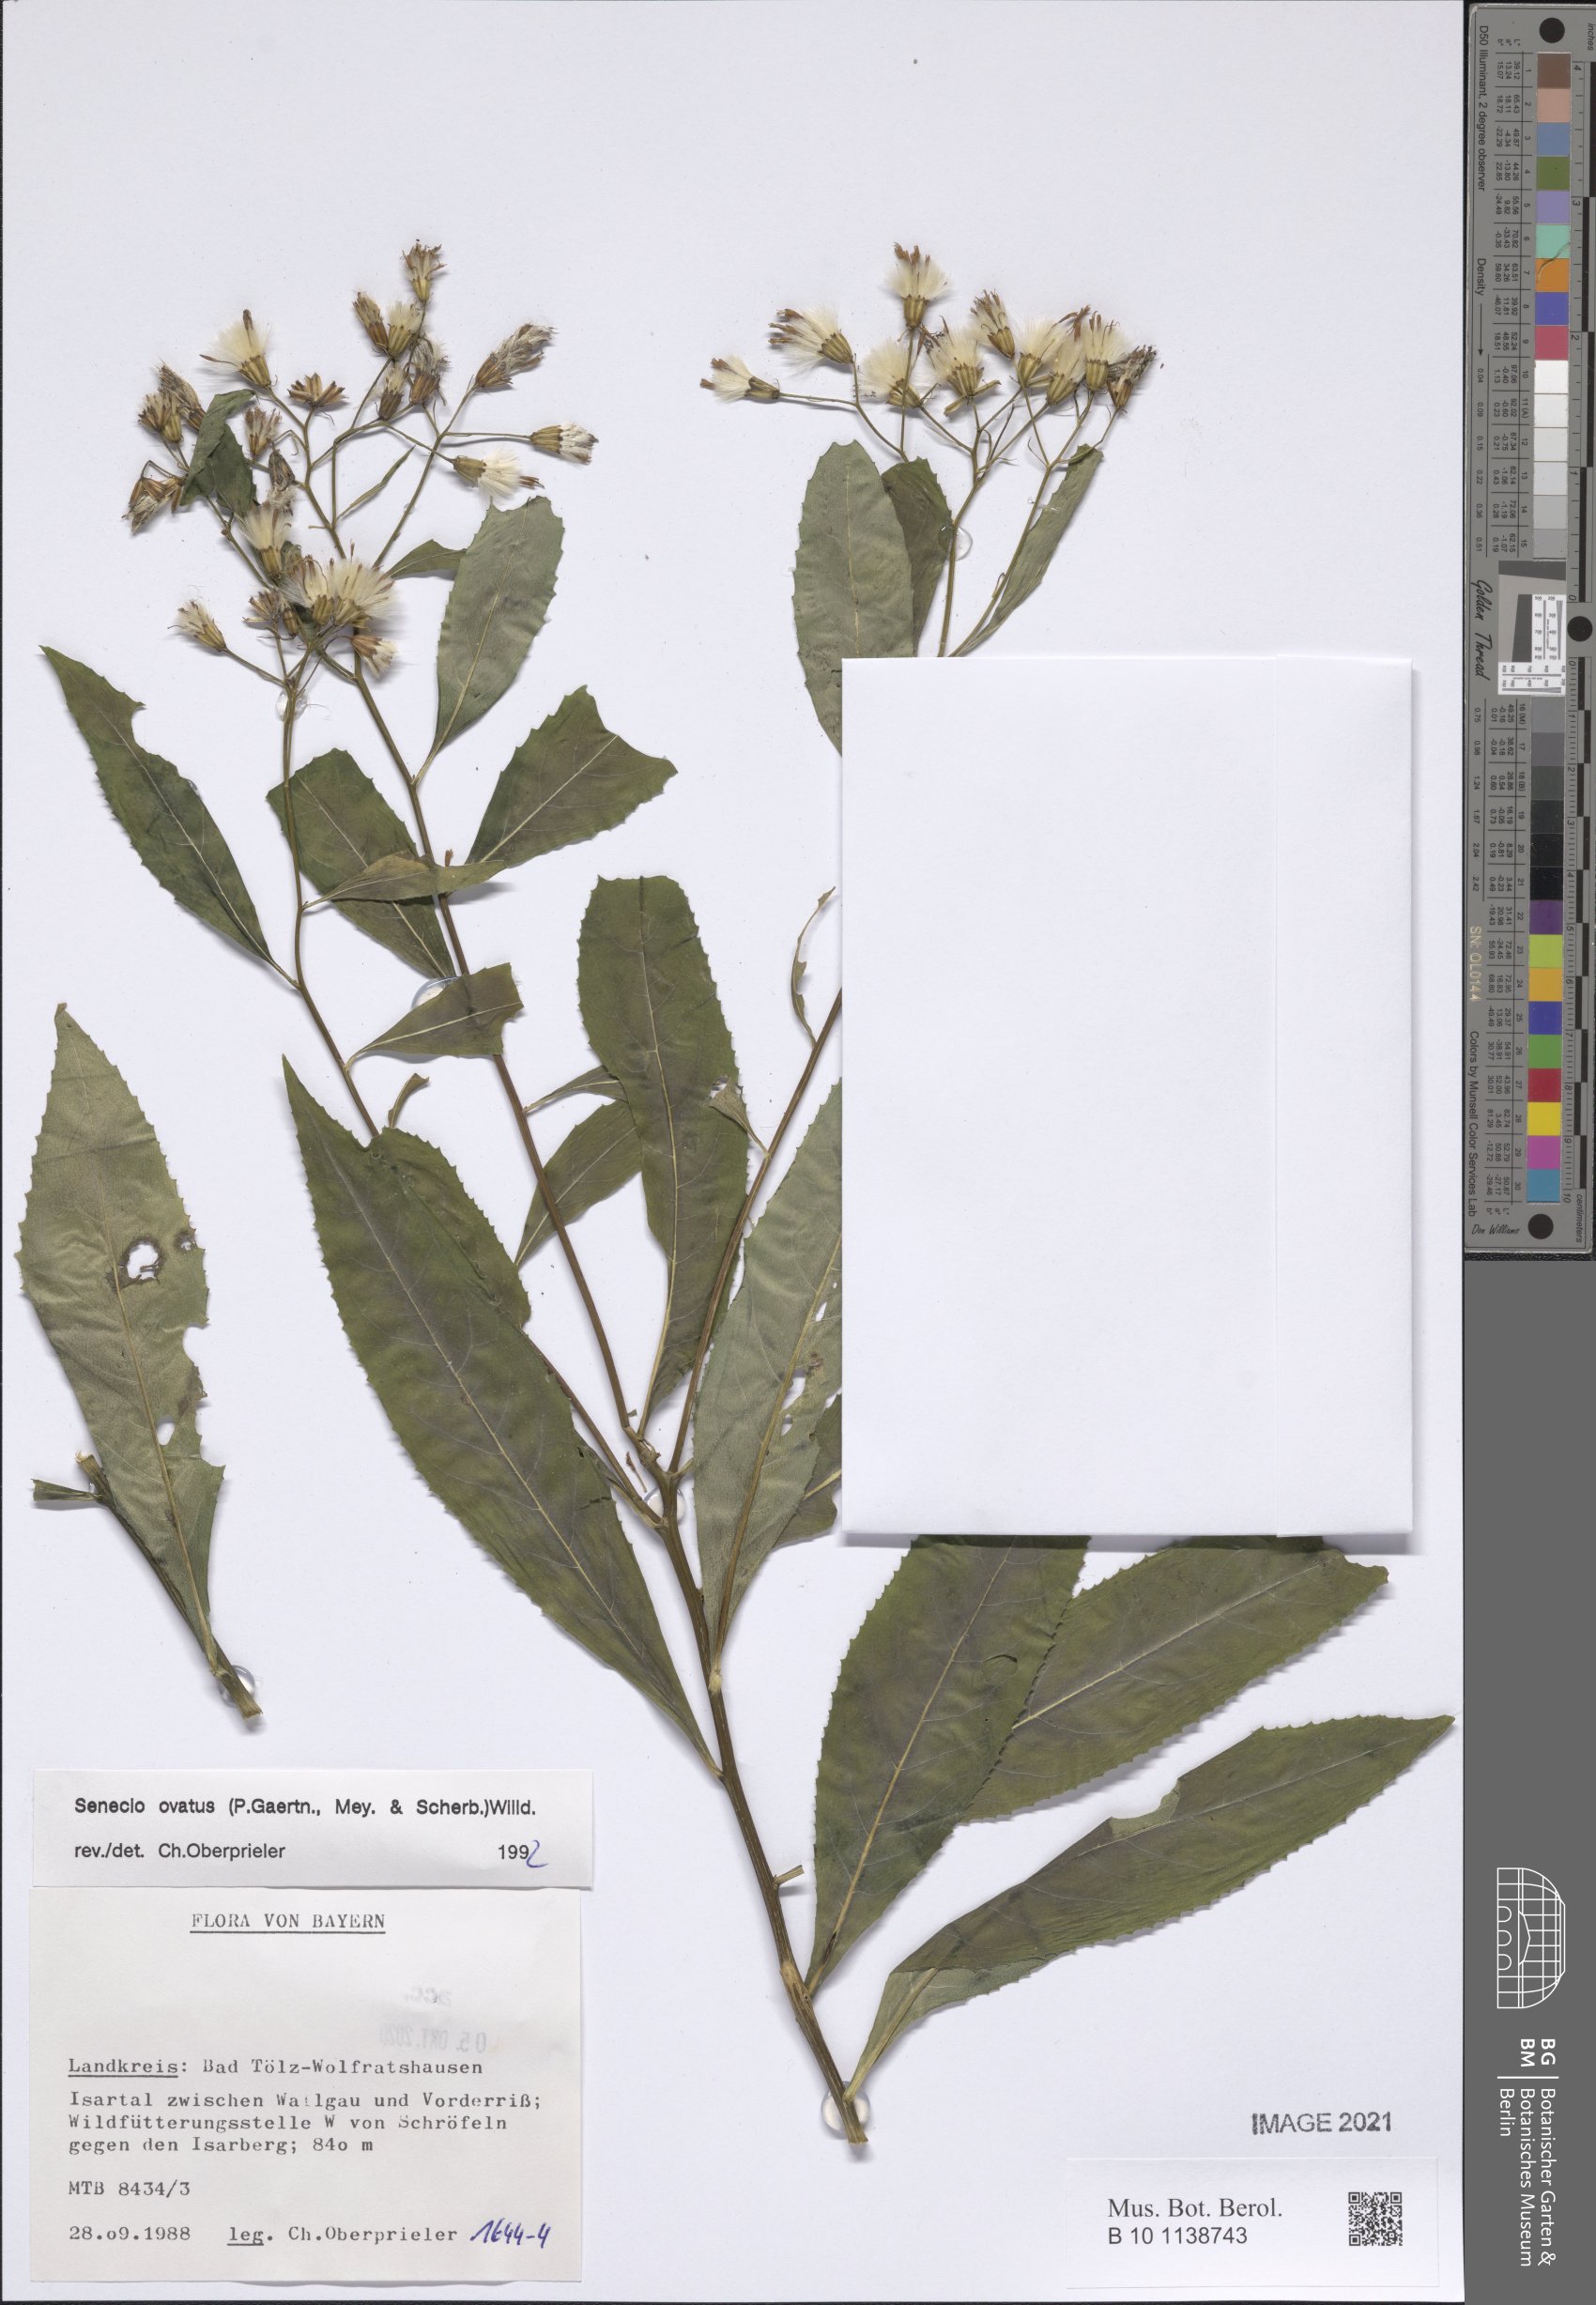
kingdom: Plantae
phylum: Tracheophyta
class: Magnoliopsida
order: Asterales
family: Asteraceae
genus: Senecio
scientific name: Senecio ovatus
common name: Wood ragwort
